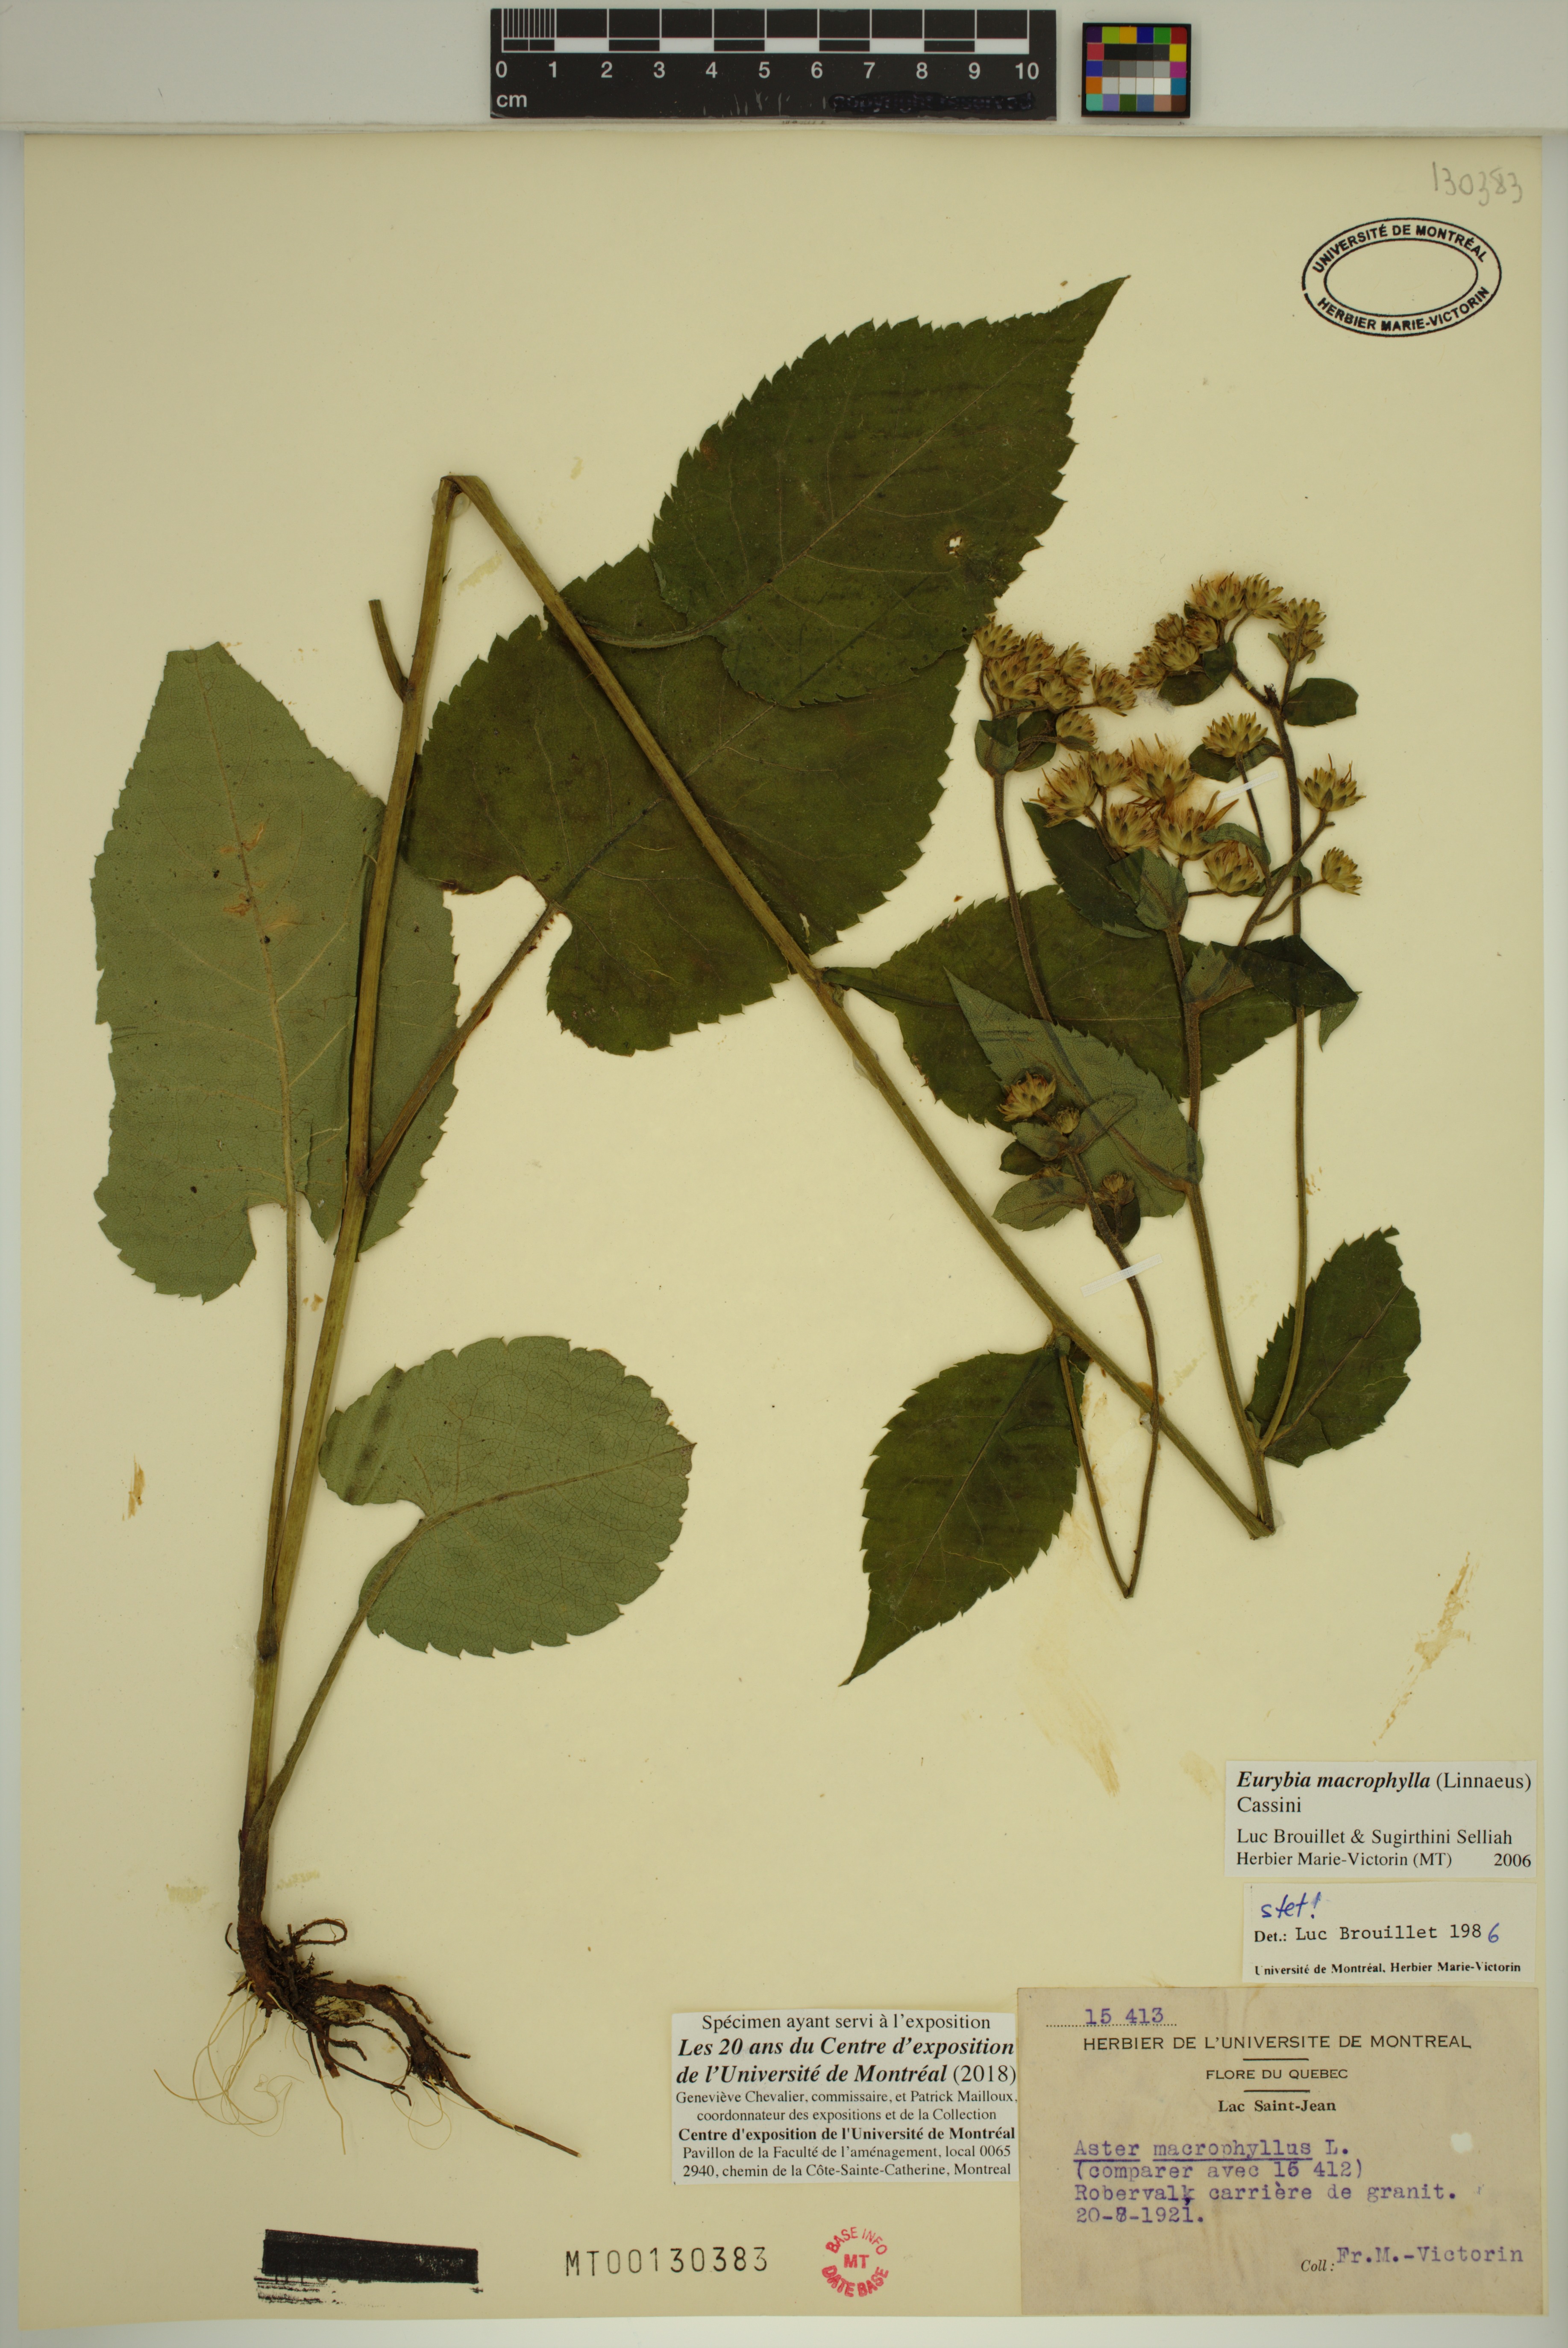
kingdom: Plantae
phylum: Tracheophyta
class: Magnoliopsida
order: Asterales
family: Asteraceae
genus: Eurybia
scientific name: Eurybia macrophylla
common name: Big-leaved aster
